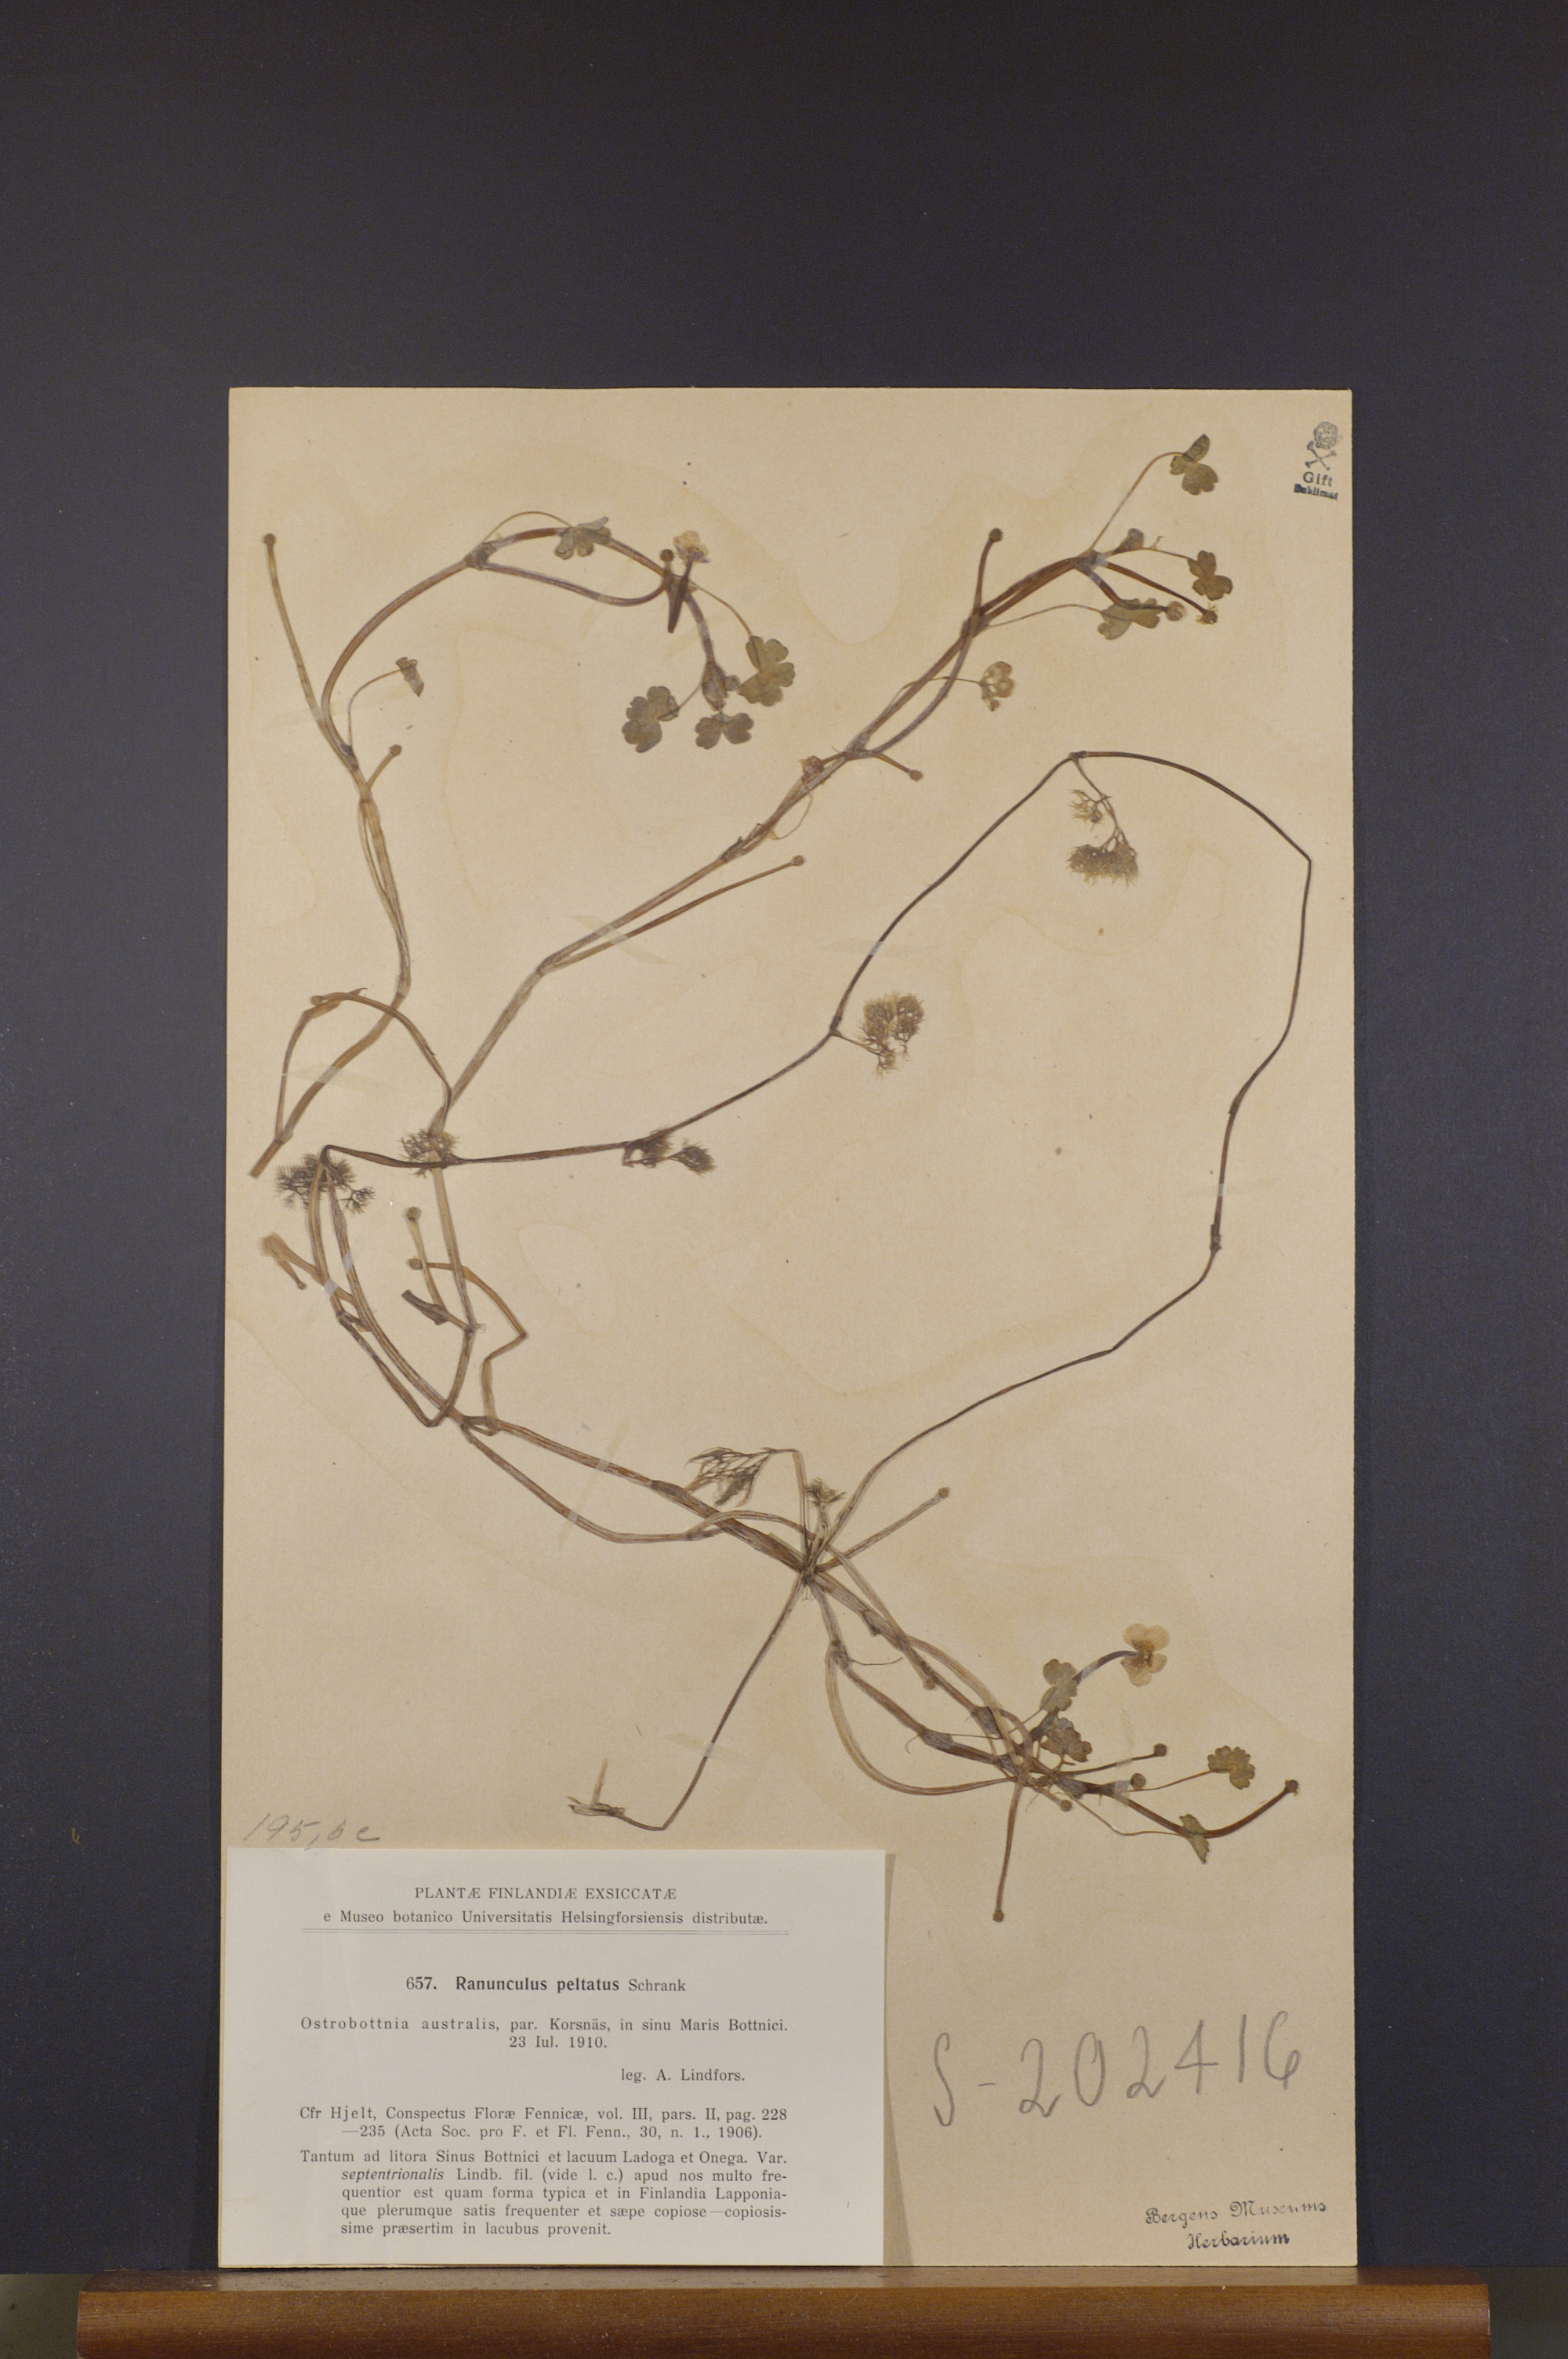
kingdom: Plantae
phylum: Tracheophyta
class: Magnoliopsida
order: Ranunculales
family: Ranunculaceae
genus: Ranunculus
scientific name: Ranunculus peltatus
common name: Pond water-crowfoot
